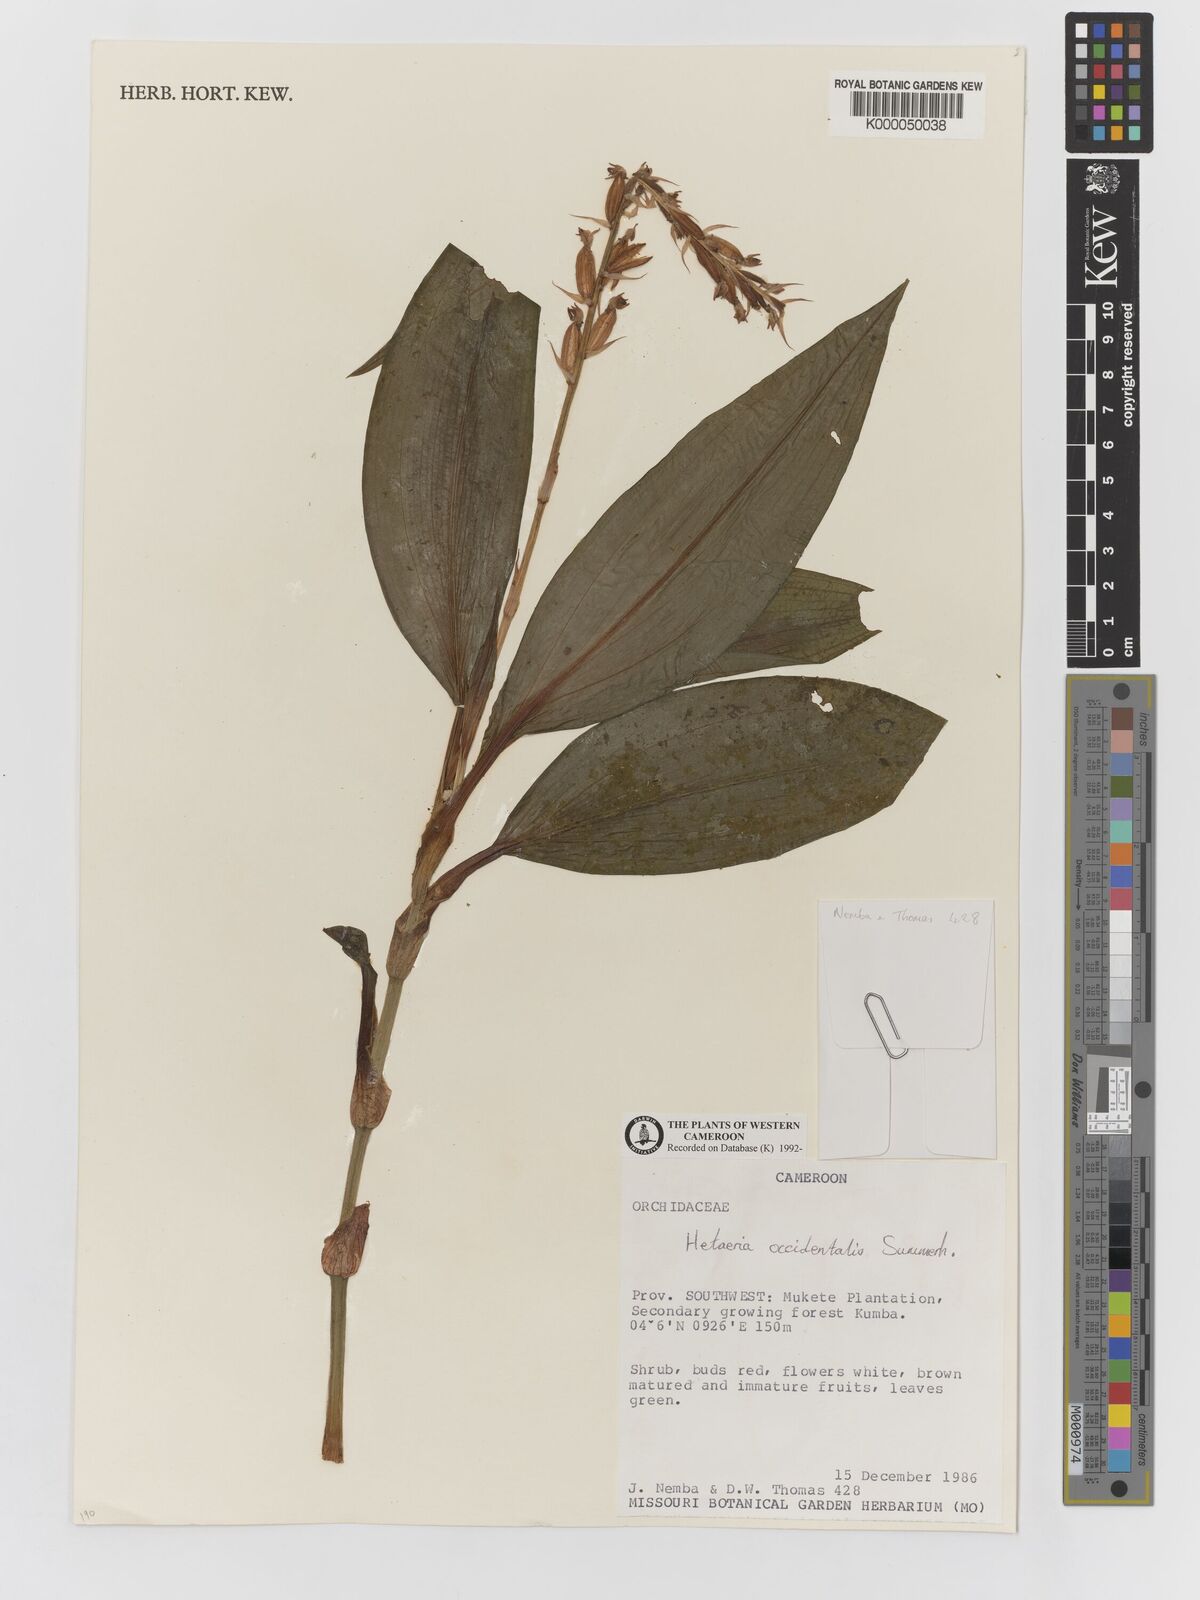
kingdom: Plantae
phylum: Tracheophyta
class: Liliopsida
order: Asparagales
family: Orchidaceae
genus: Hetaeria
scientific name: Hetaeria occidentalis
